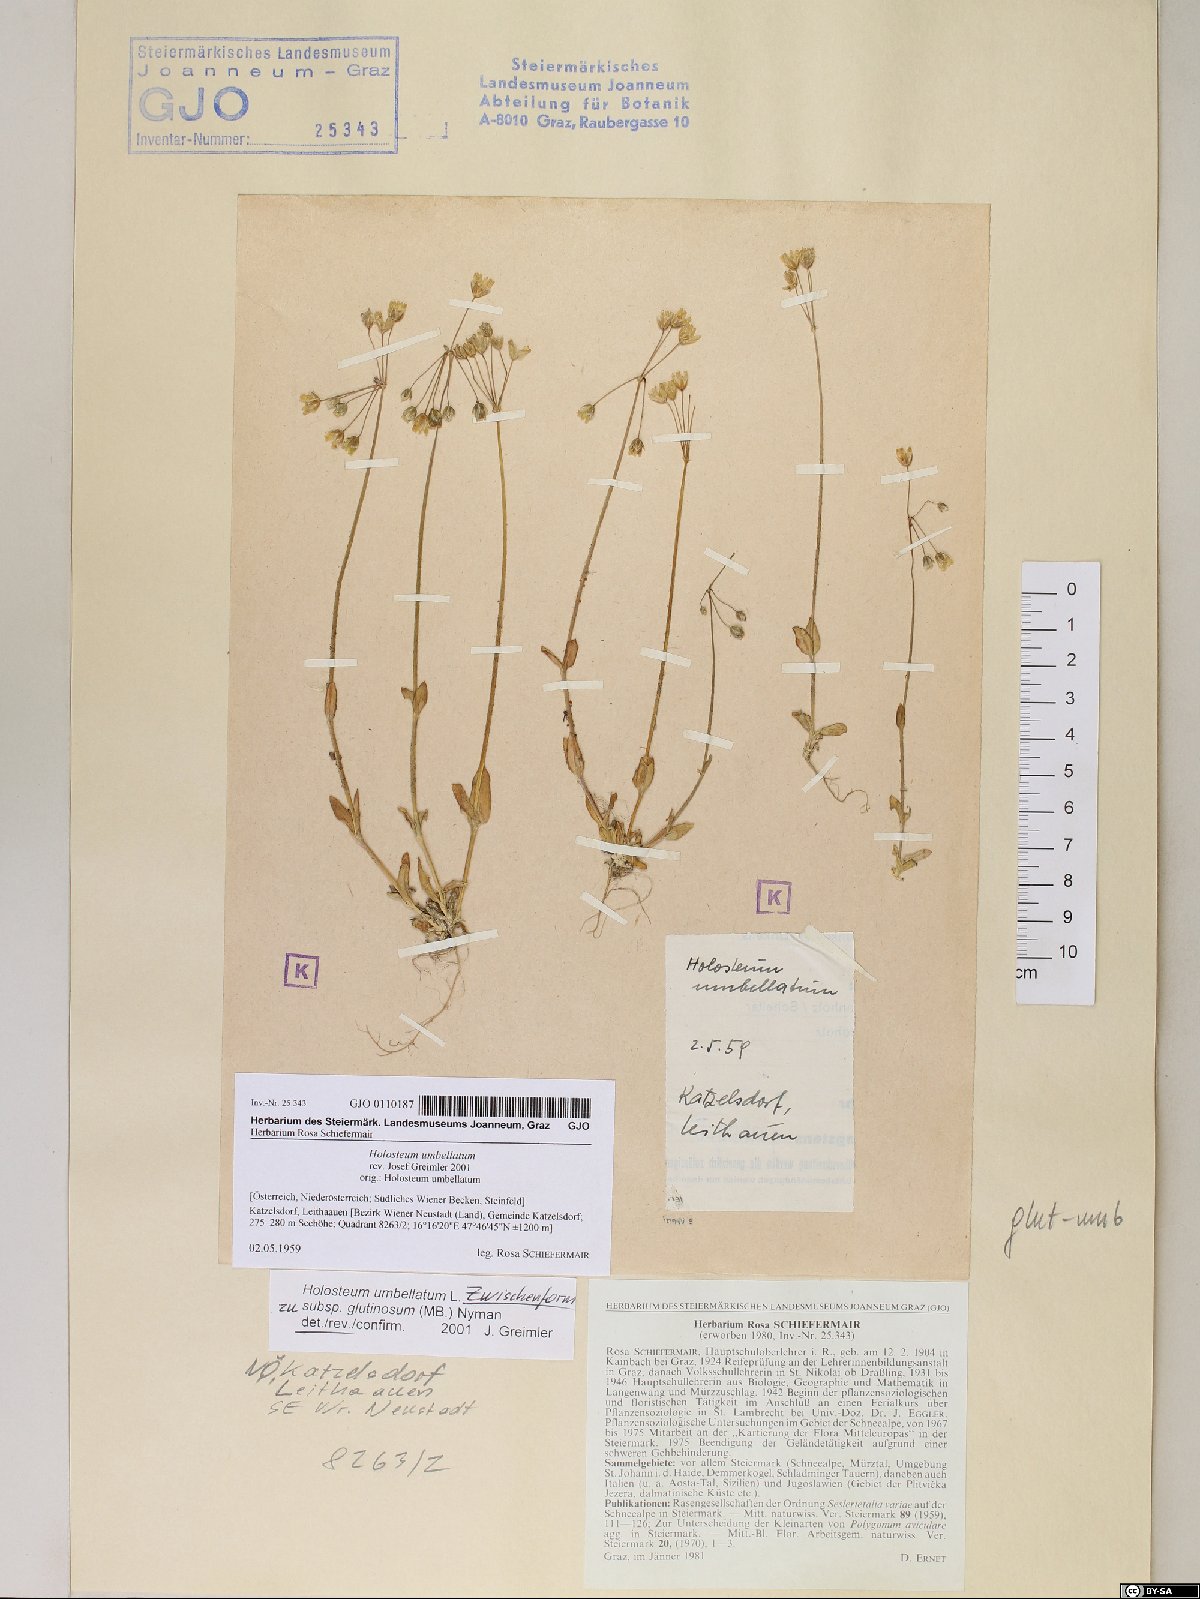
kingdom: Plantae
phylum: Tracheophyta
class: Magnoliopsida
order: Caryophyllales
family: Caryophyllaceae
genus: Holosteum
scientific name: Holosteum umbellatum
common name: Jagged chickweed
